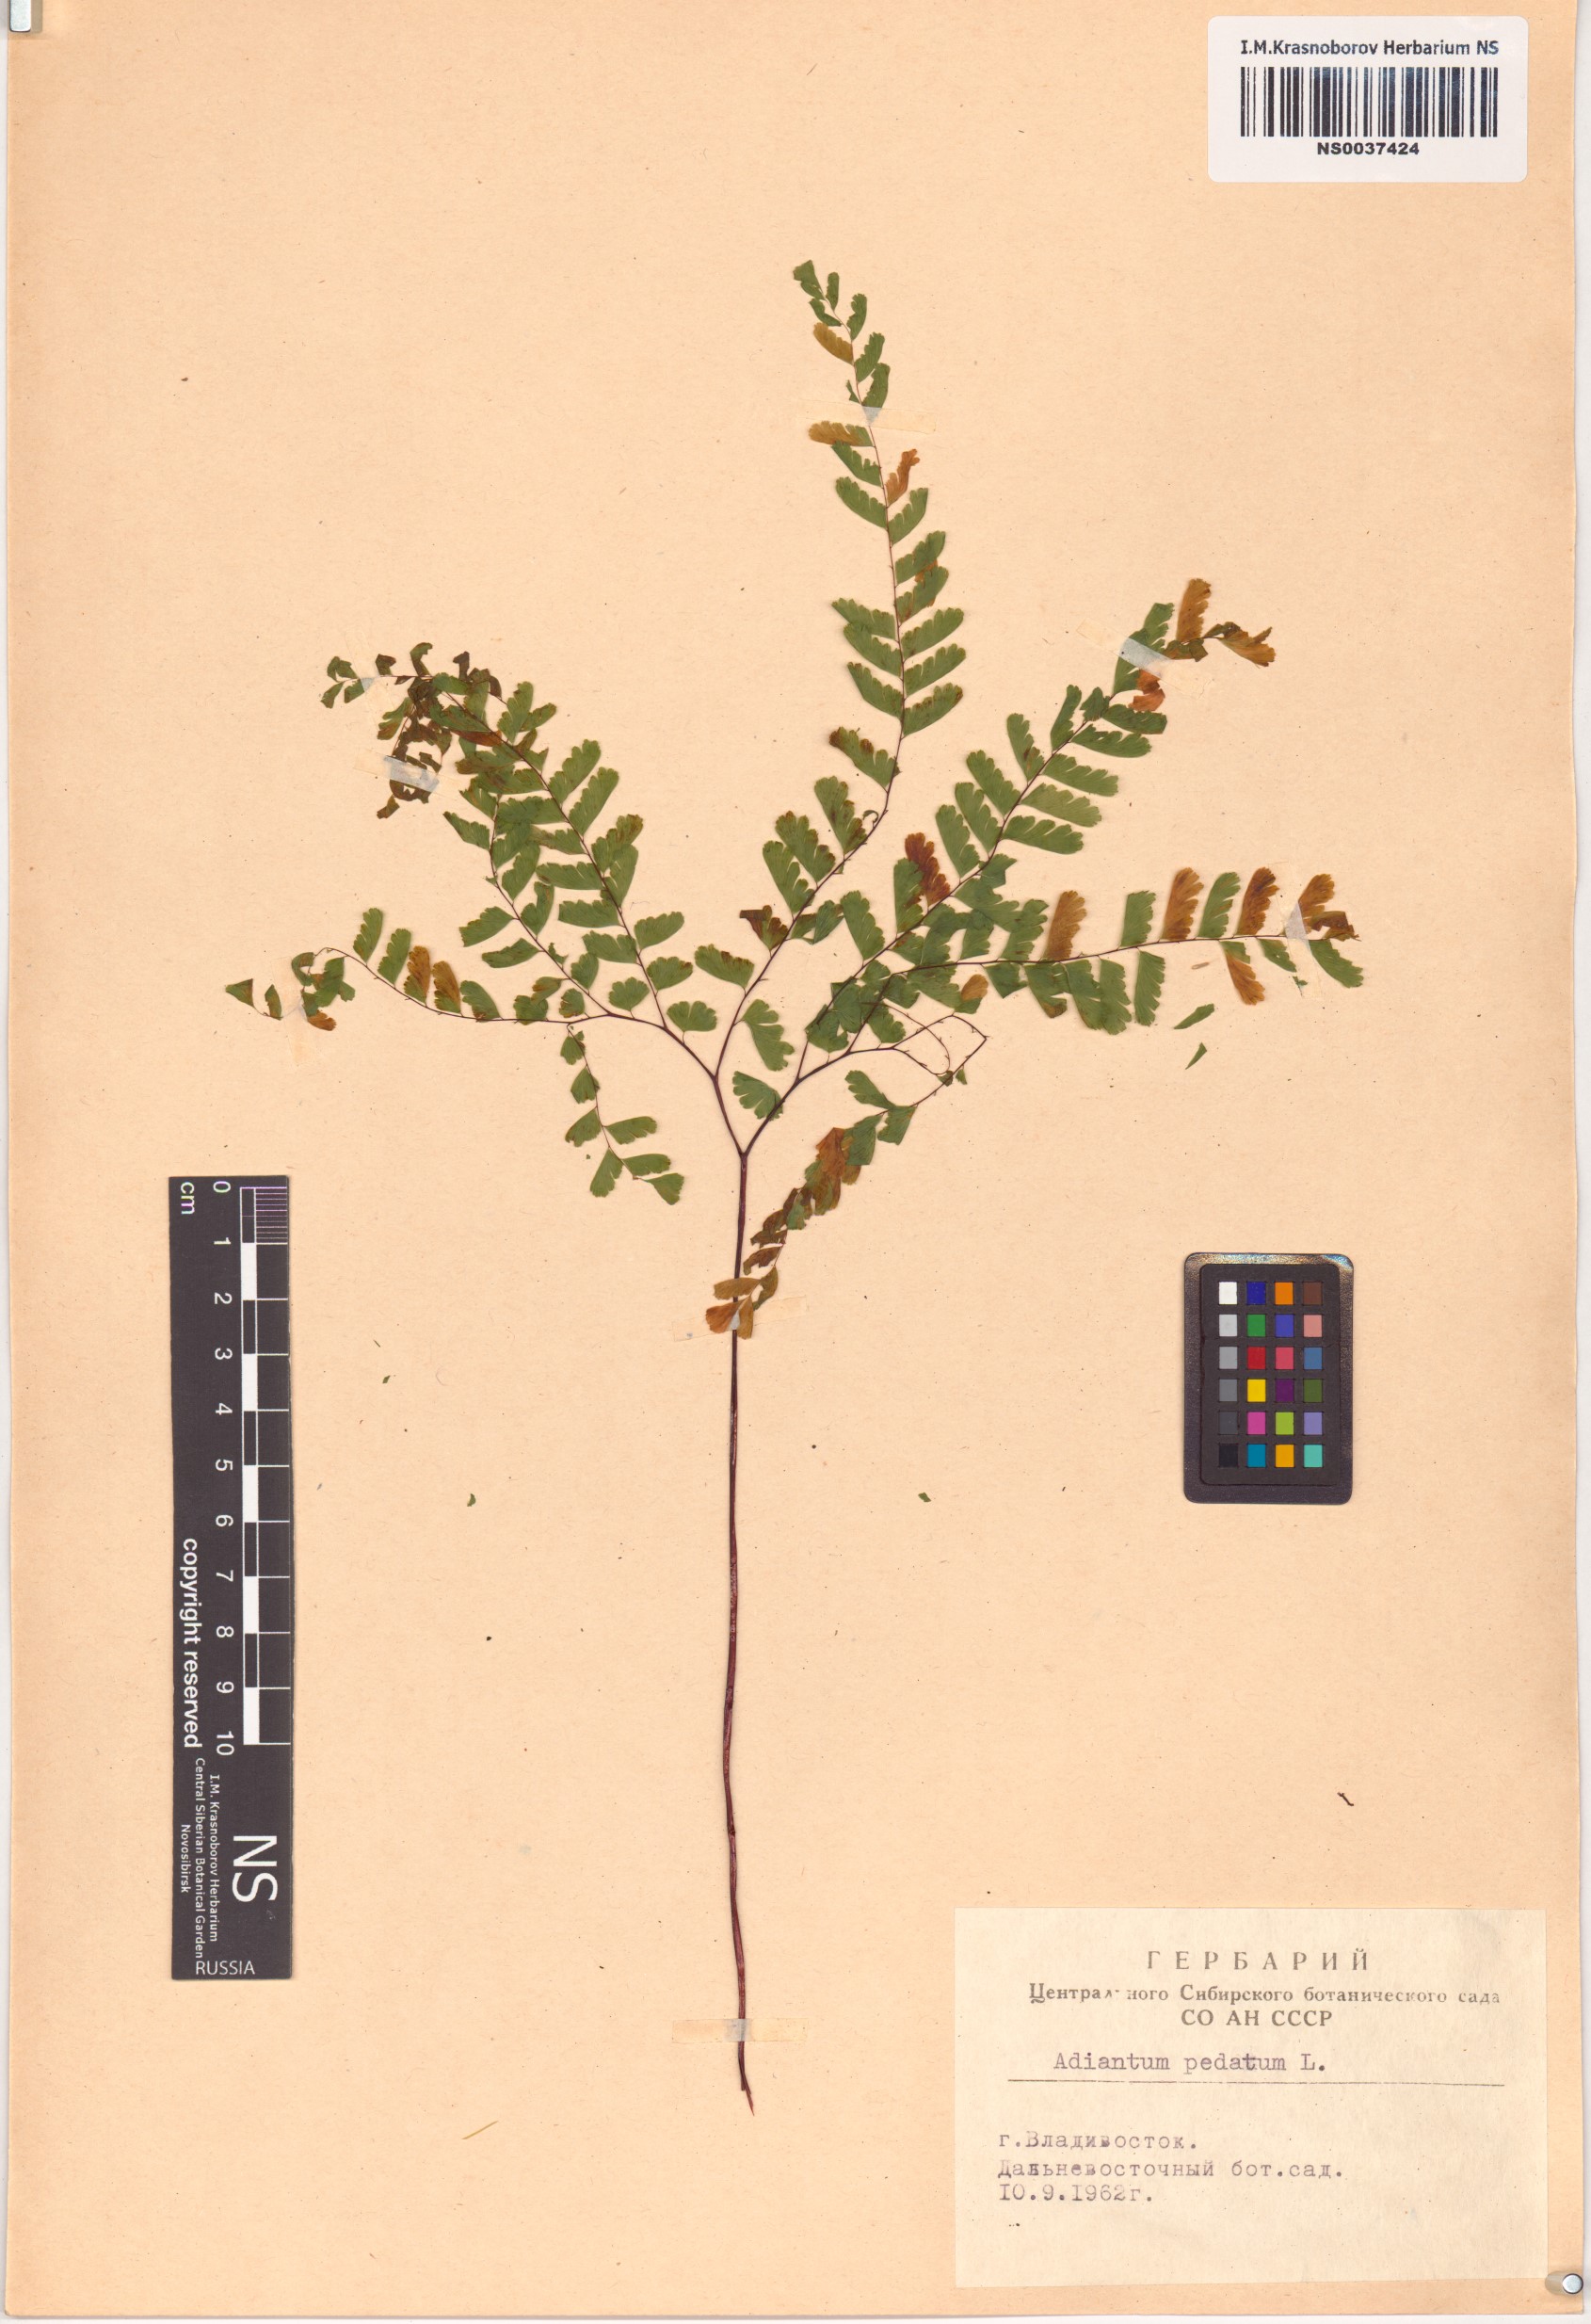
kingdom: Plantae
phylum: Tracheophyta
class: Polypodiopsida
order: Polypodiales
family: Pteridaceae
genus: Adiantum
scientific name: Adiantum pedatum
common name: Five-finger fern
